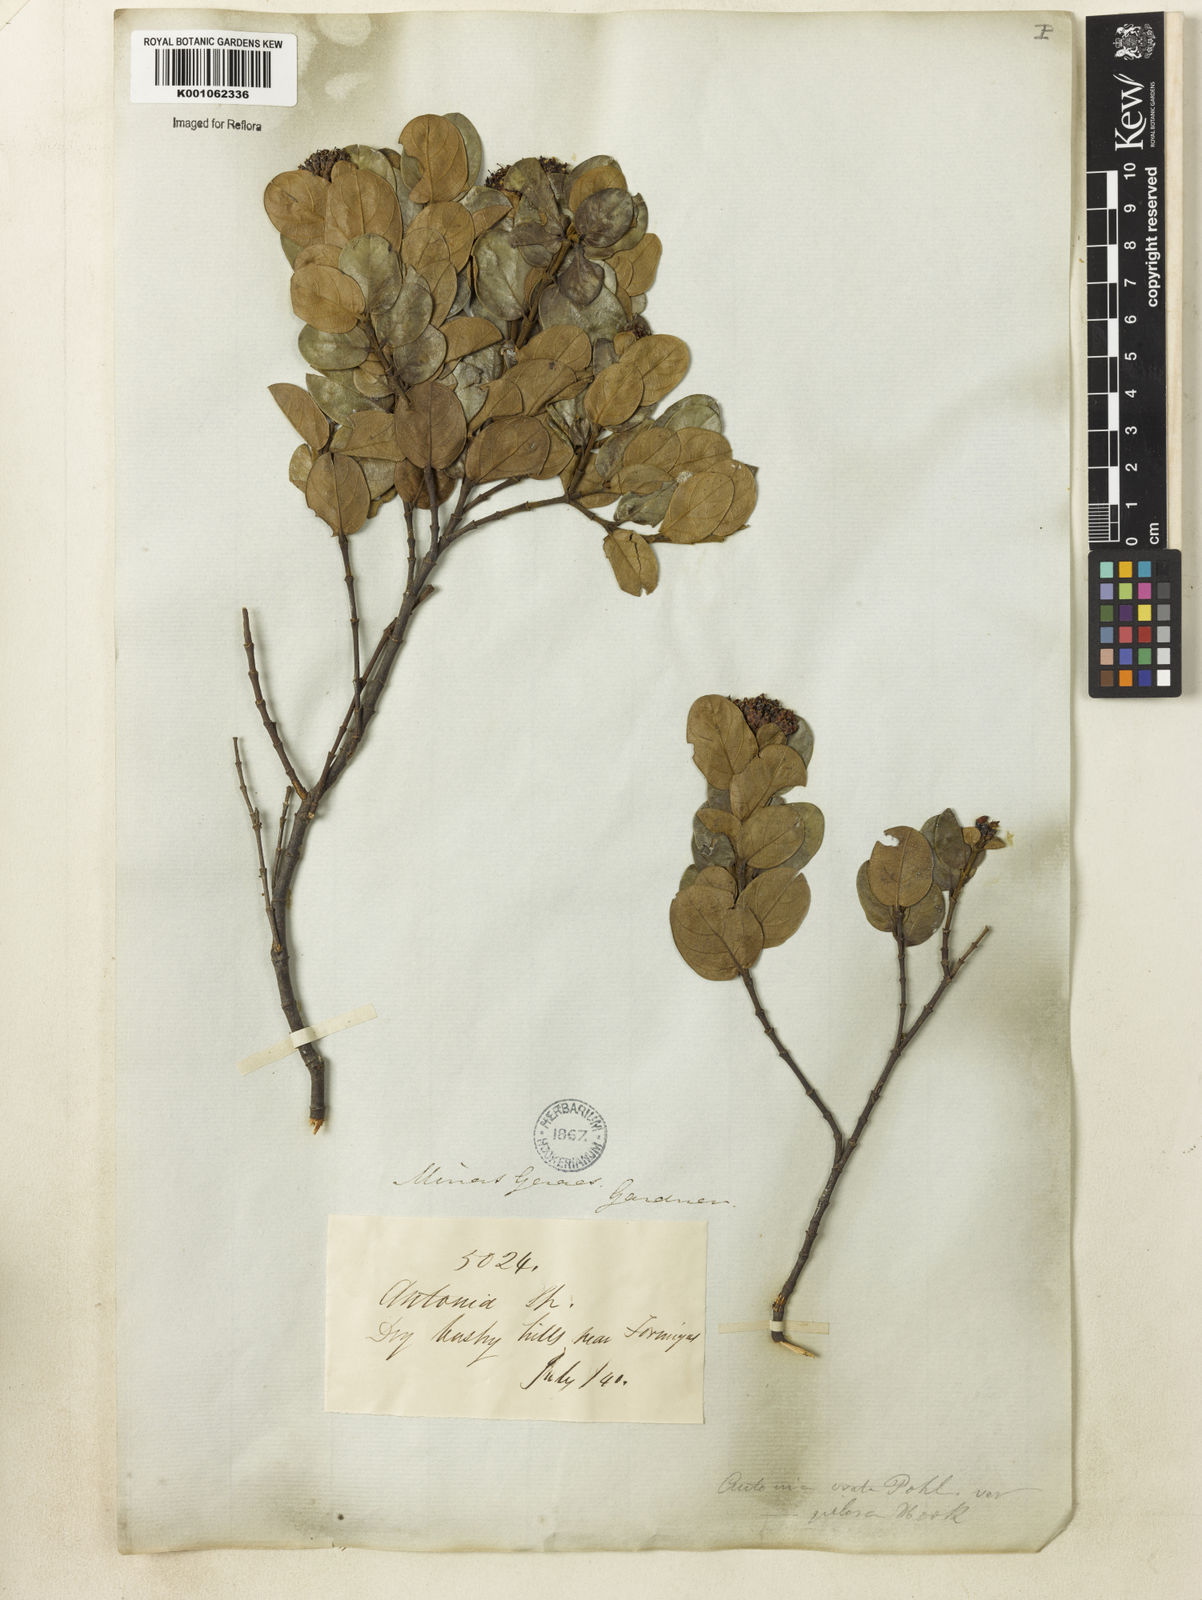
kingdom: Plantae
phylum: Tracheophyta
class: Magnoliopsida
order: Gentianales
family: Loganiaceae
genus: Antonia
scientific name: Antonia ovata
